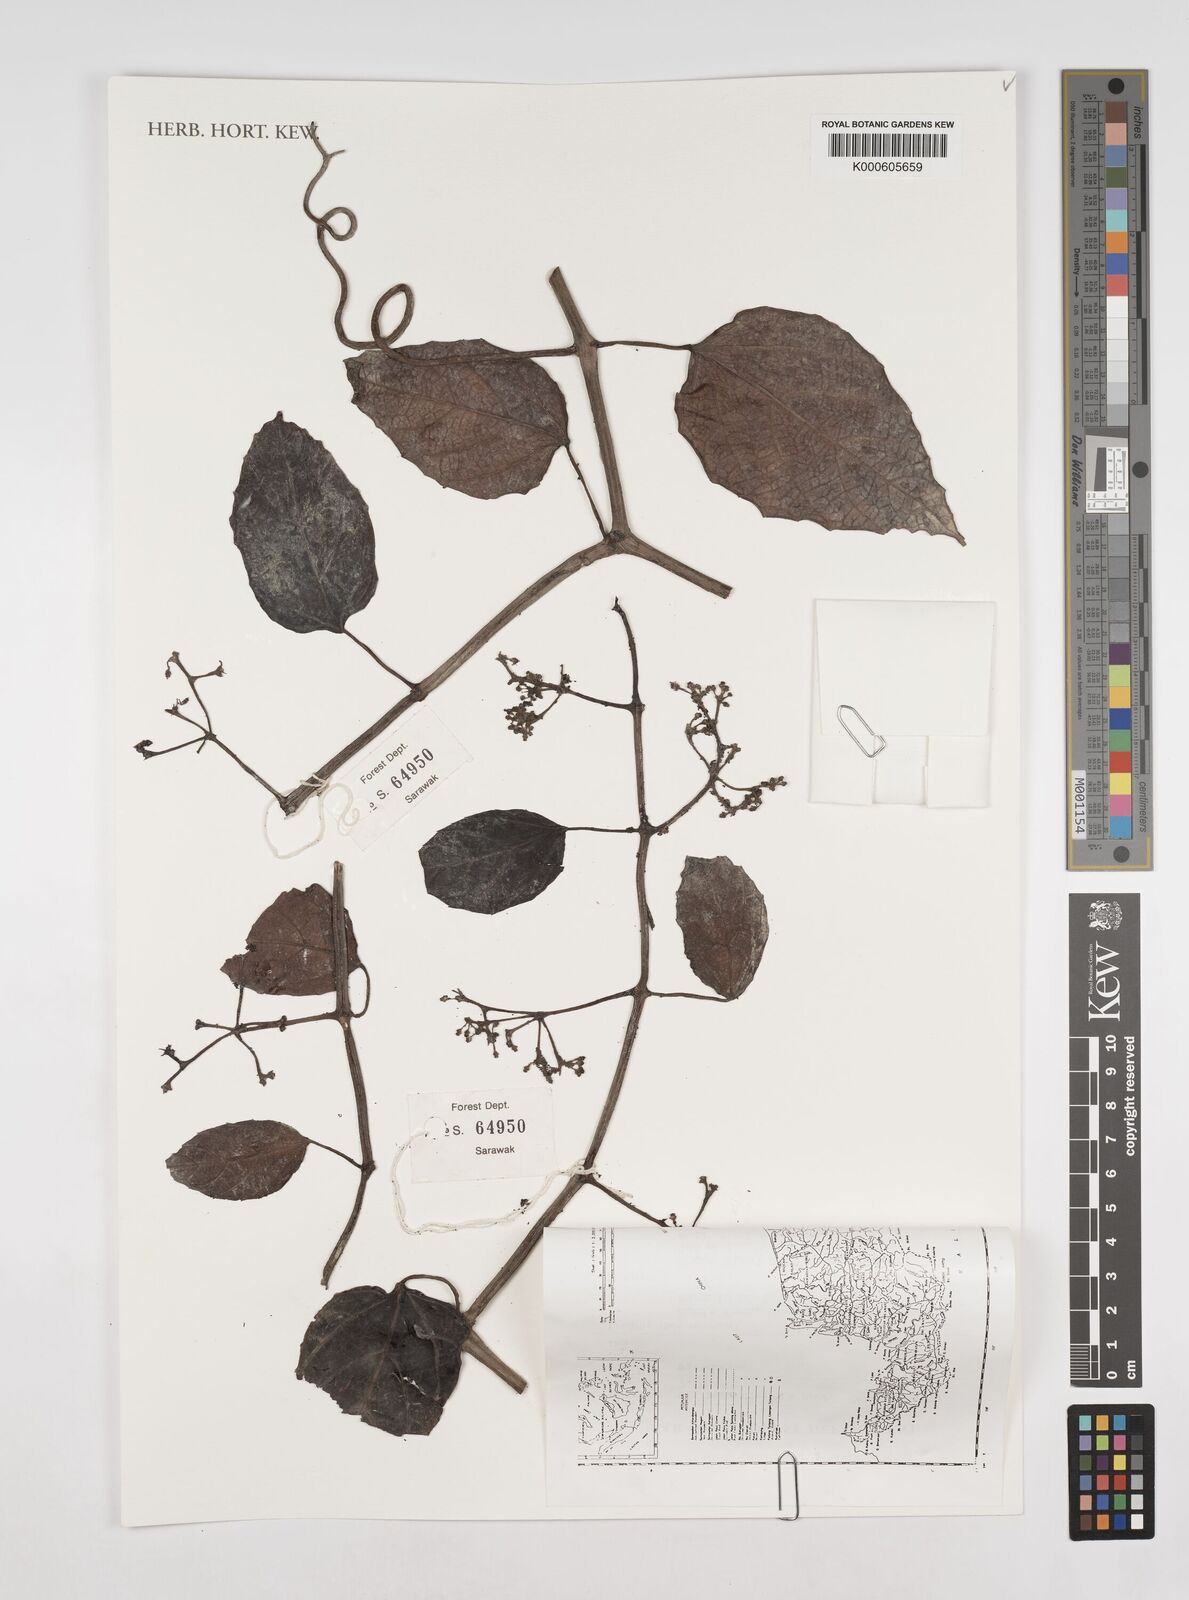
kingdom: Plantae
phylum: Tracheophyta
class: Magnoliopsida
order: Vitales
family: Vitaceae
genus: Cissus
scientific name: Cissus
